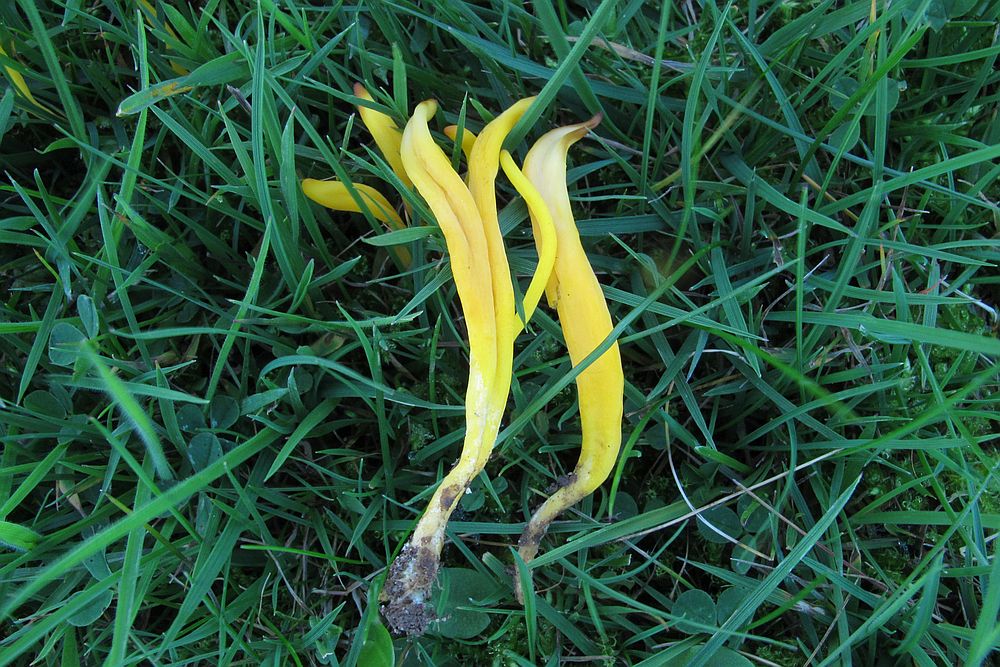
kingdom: Fungi
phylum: Basidiomycota
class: Agaricomycetes
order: Agaricales
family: Clavariaceae
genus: Clavulinopsis
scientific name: Clavulinopsis helvola
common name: orangegul køllesvamp
